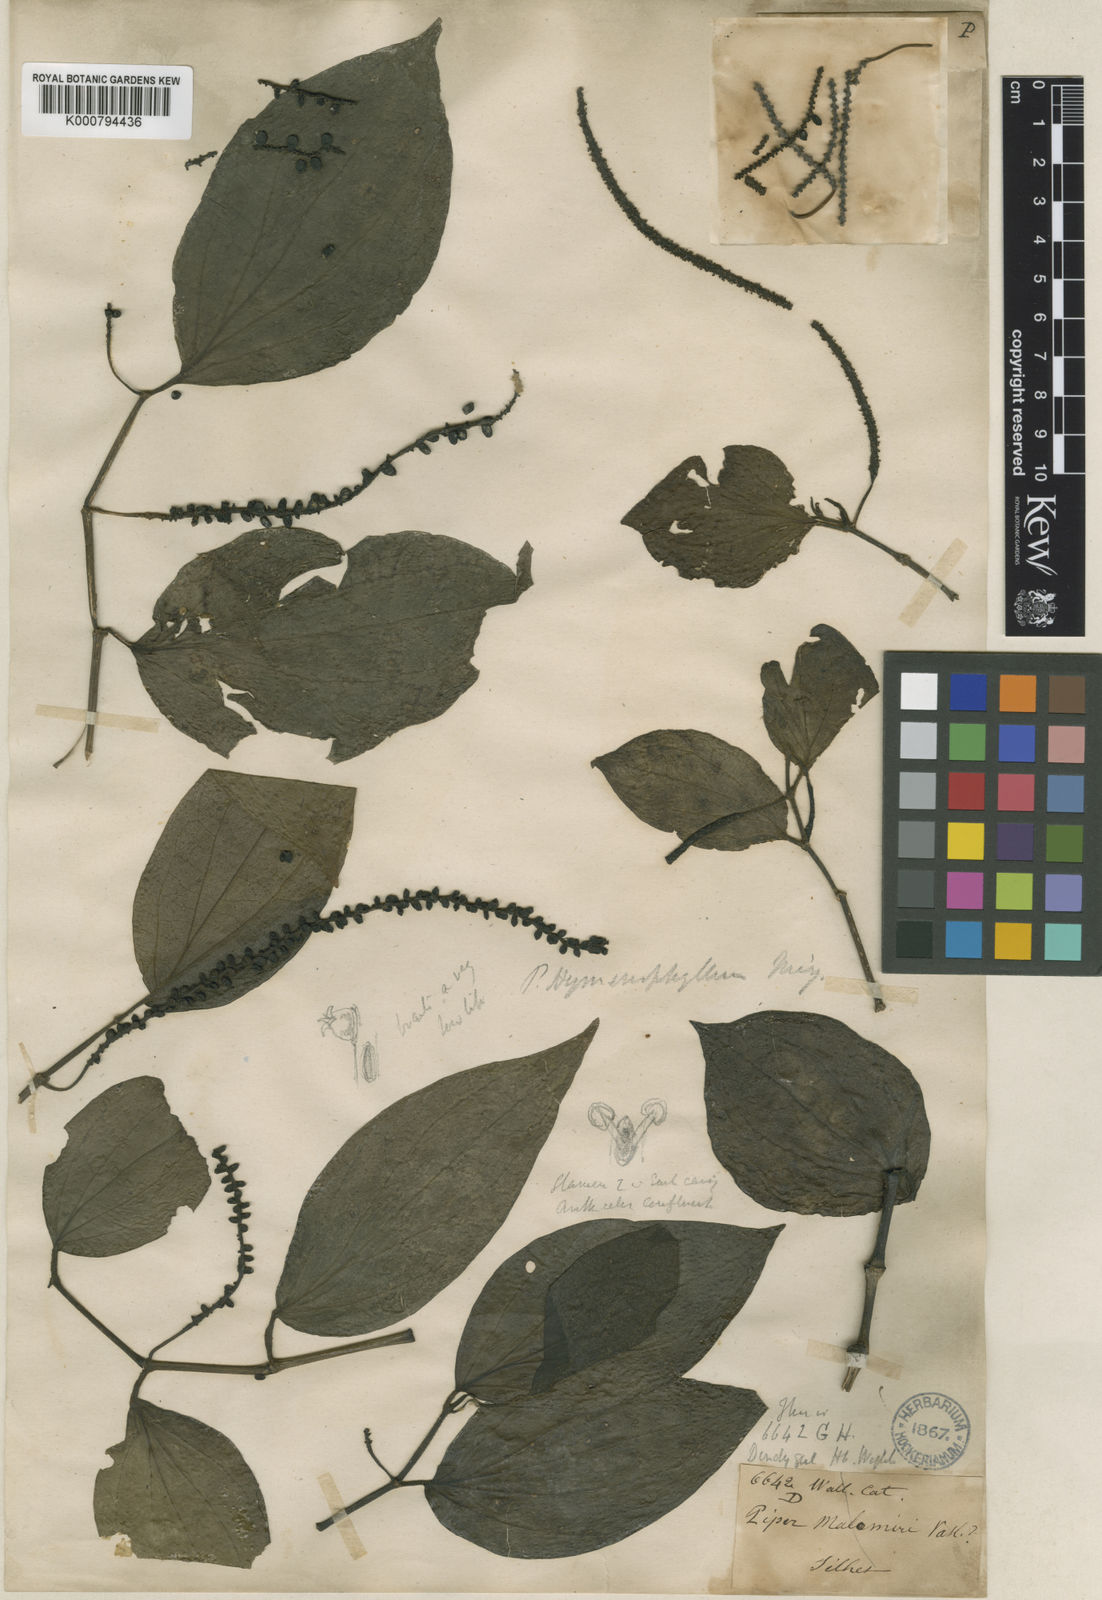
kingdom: Plantae
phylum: Tracheophyta
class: Magnoliopsida
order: Piperales
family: Piperaceae
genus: Piper
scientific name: Piper
